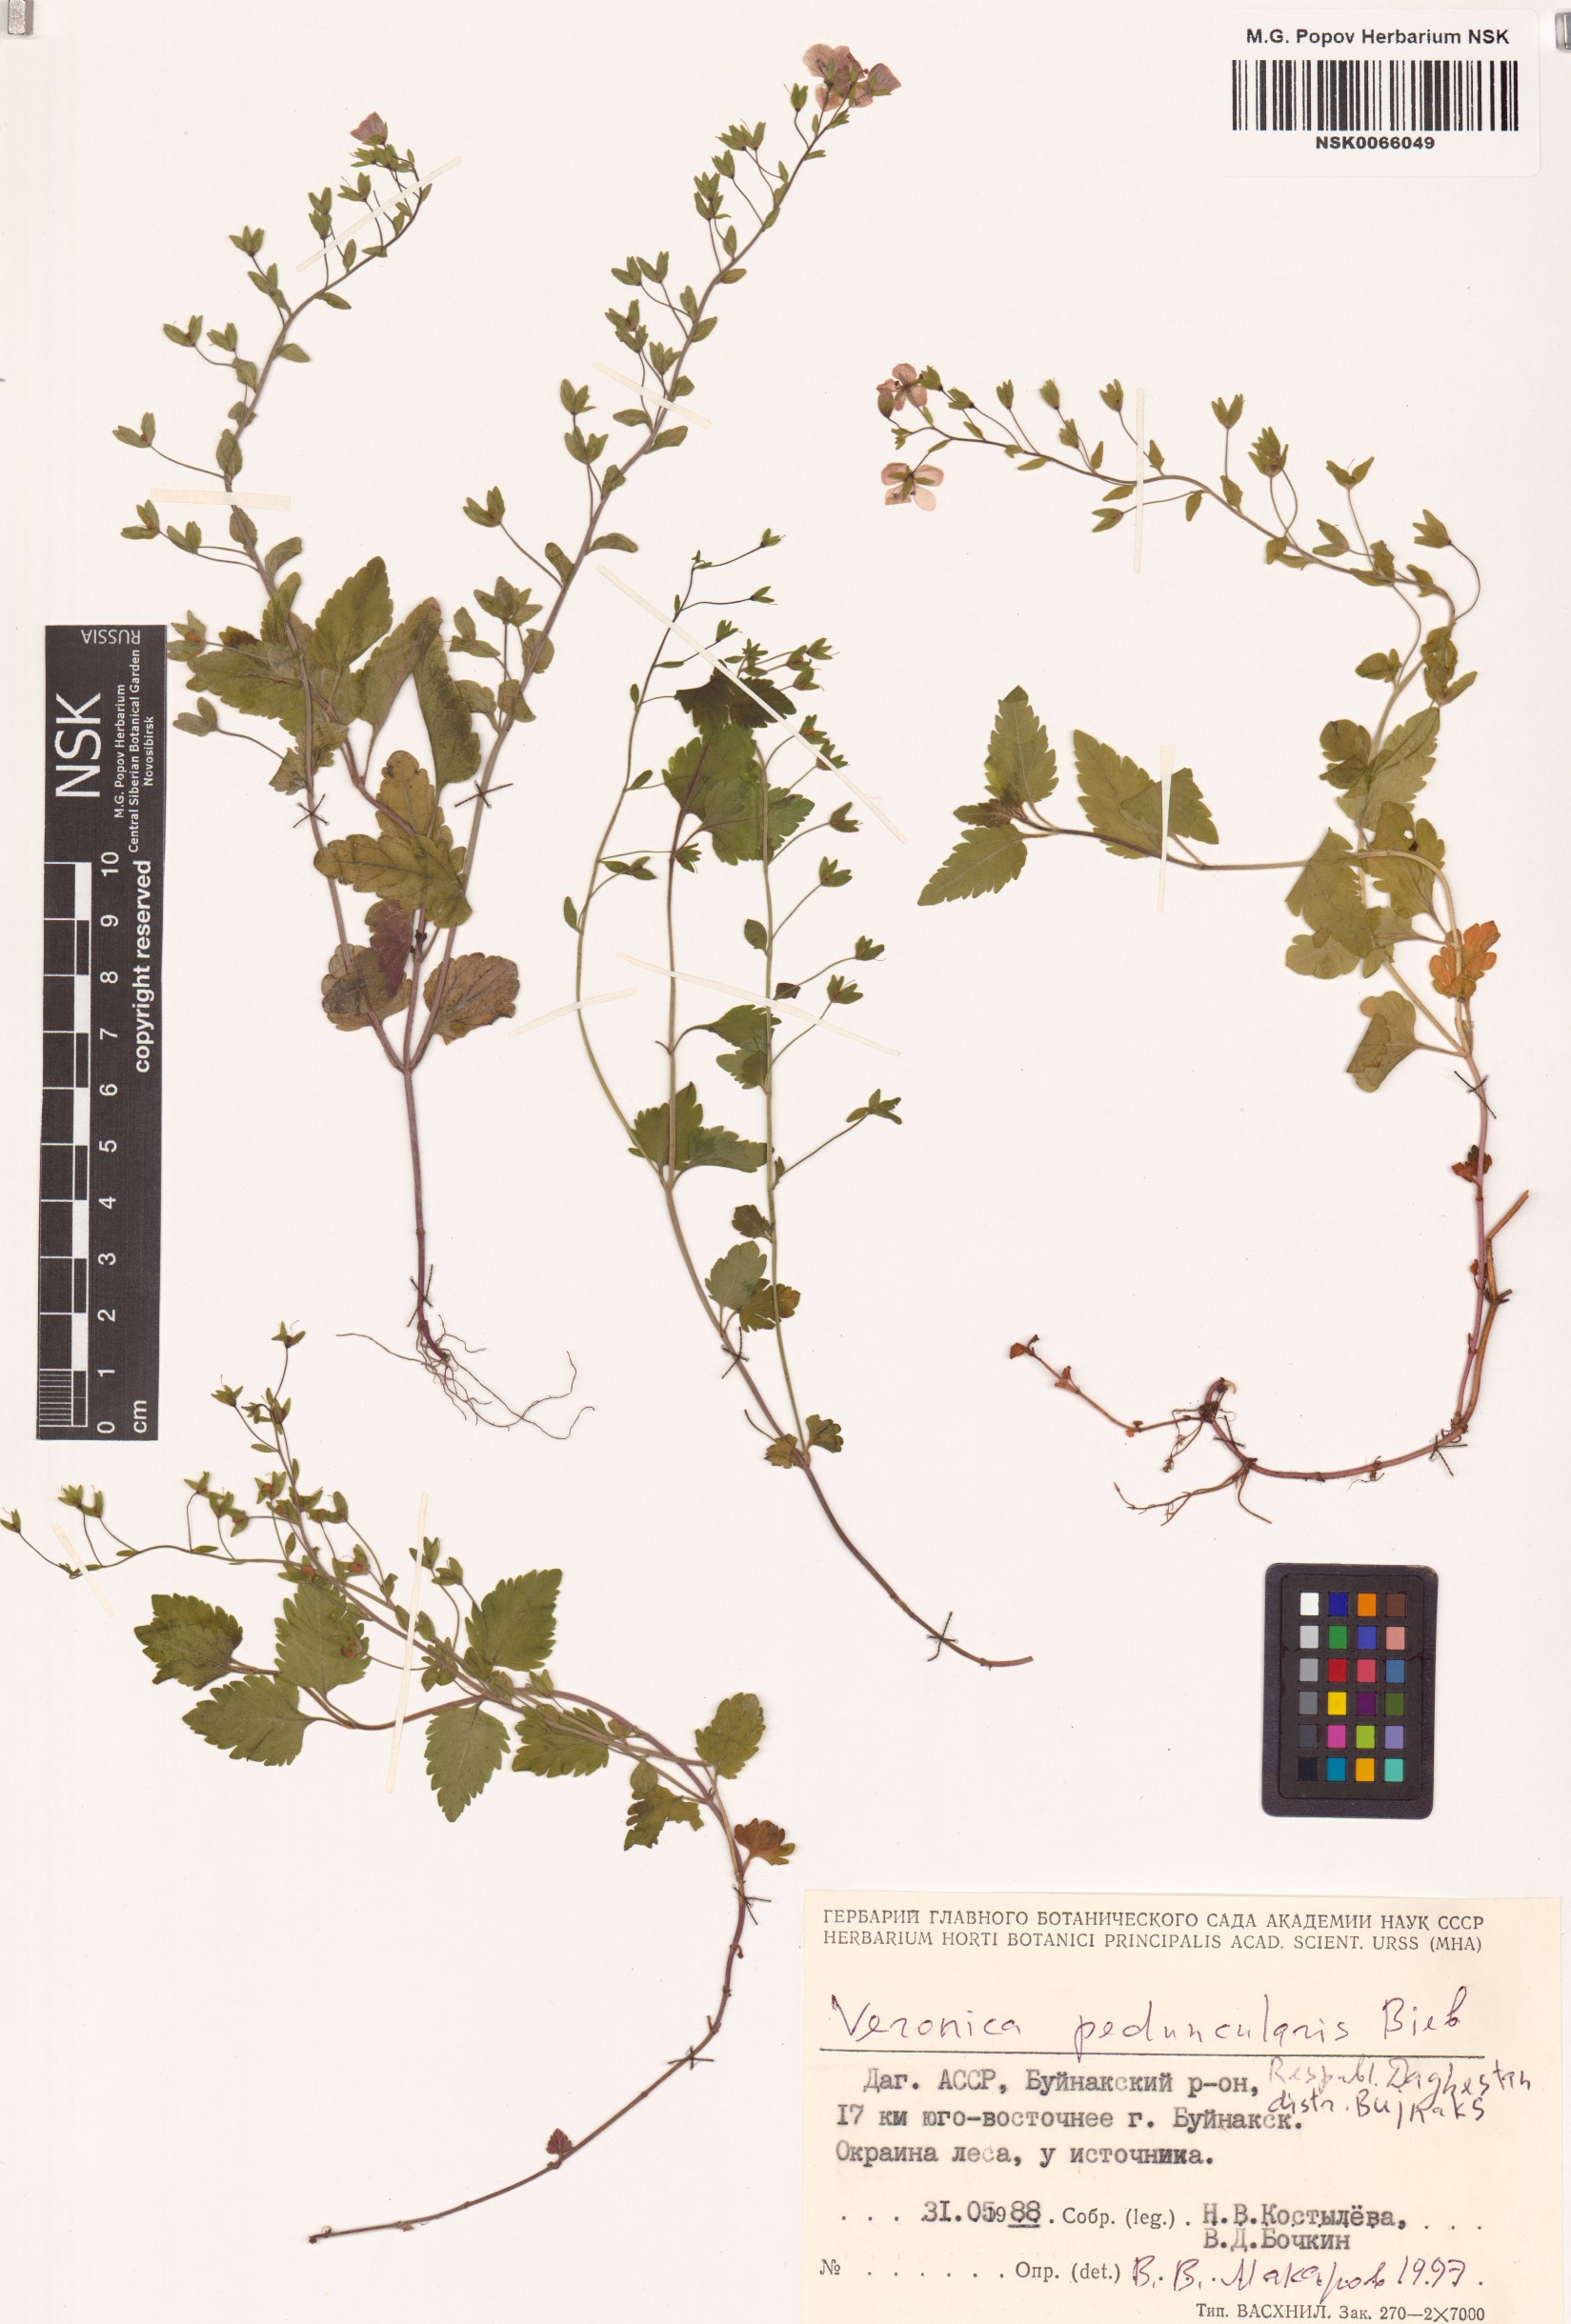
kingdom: Plantae
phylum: Tracheophyta
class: Magnoliopsida
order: Lamiales
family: Plantaginaceae
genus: Veronica
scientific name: Veronica peduncularis
